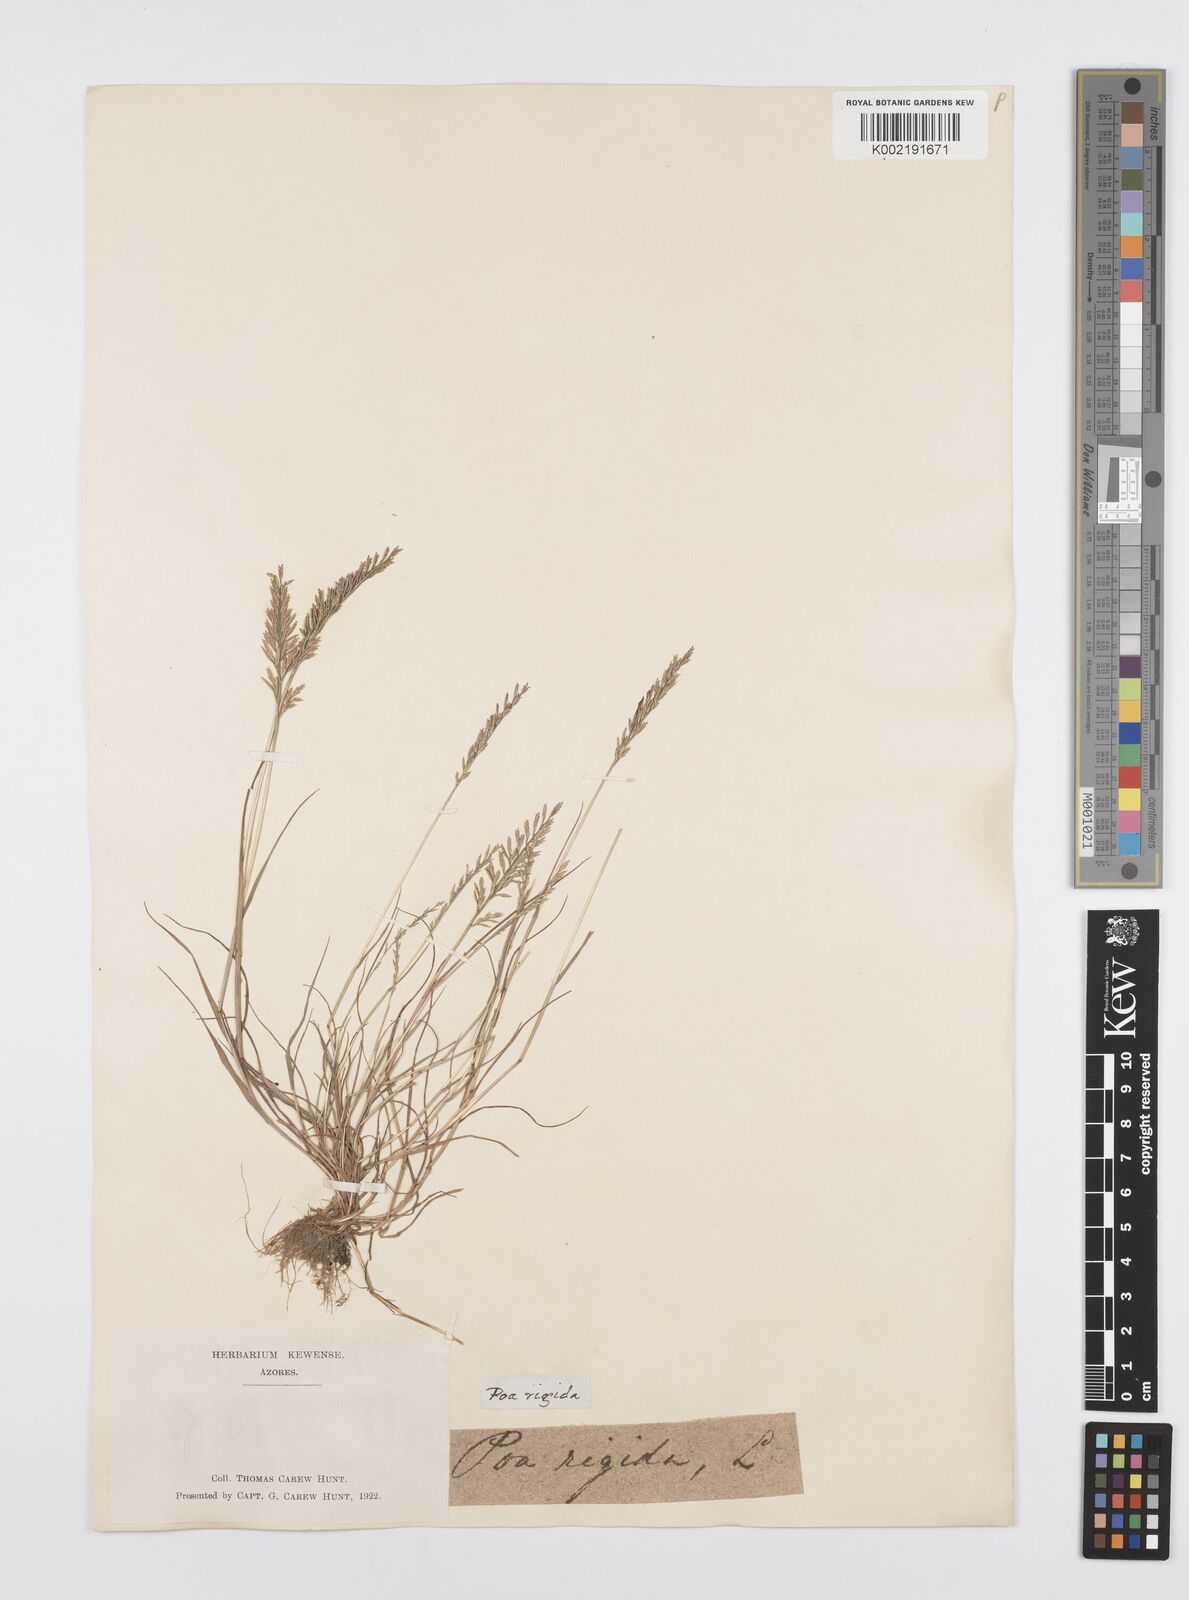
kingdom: Plantae
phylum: Tracheophyta
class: Liliopsida
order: Poales
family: Poaceae
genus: Catapodium
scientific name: Catapodium rigidum
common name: Fern-grass
